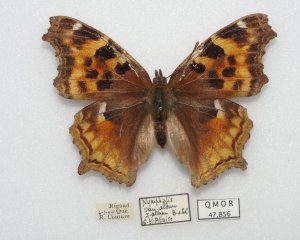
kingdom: Animalia
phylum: Arthropoda
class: Insecta
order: Lepidoptera
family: Nymphalidae
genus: Polygonia
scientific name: Polygonia vaualbum
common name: Compton Tortoiseshell
